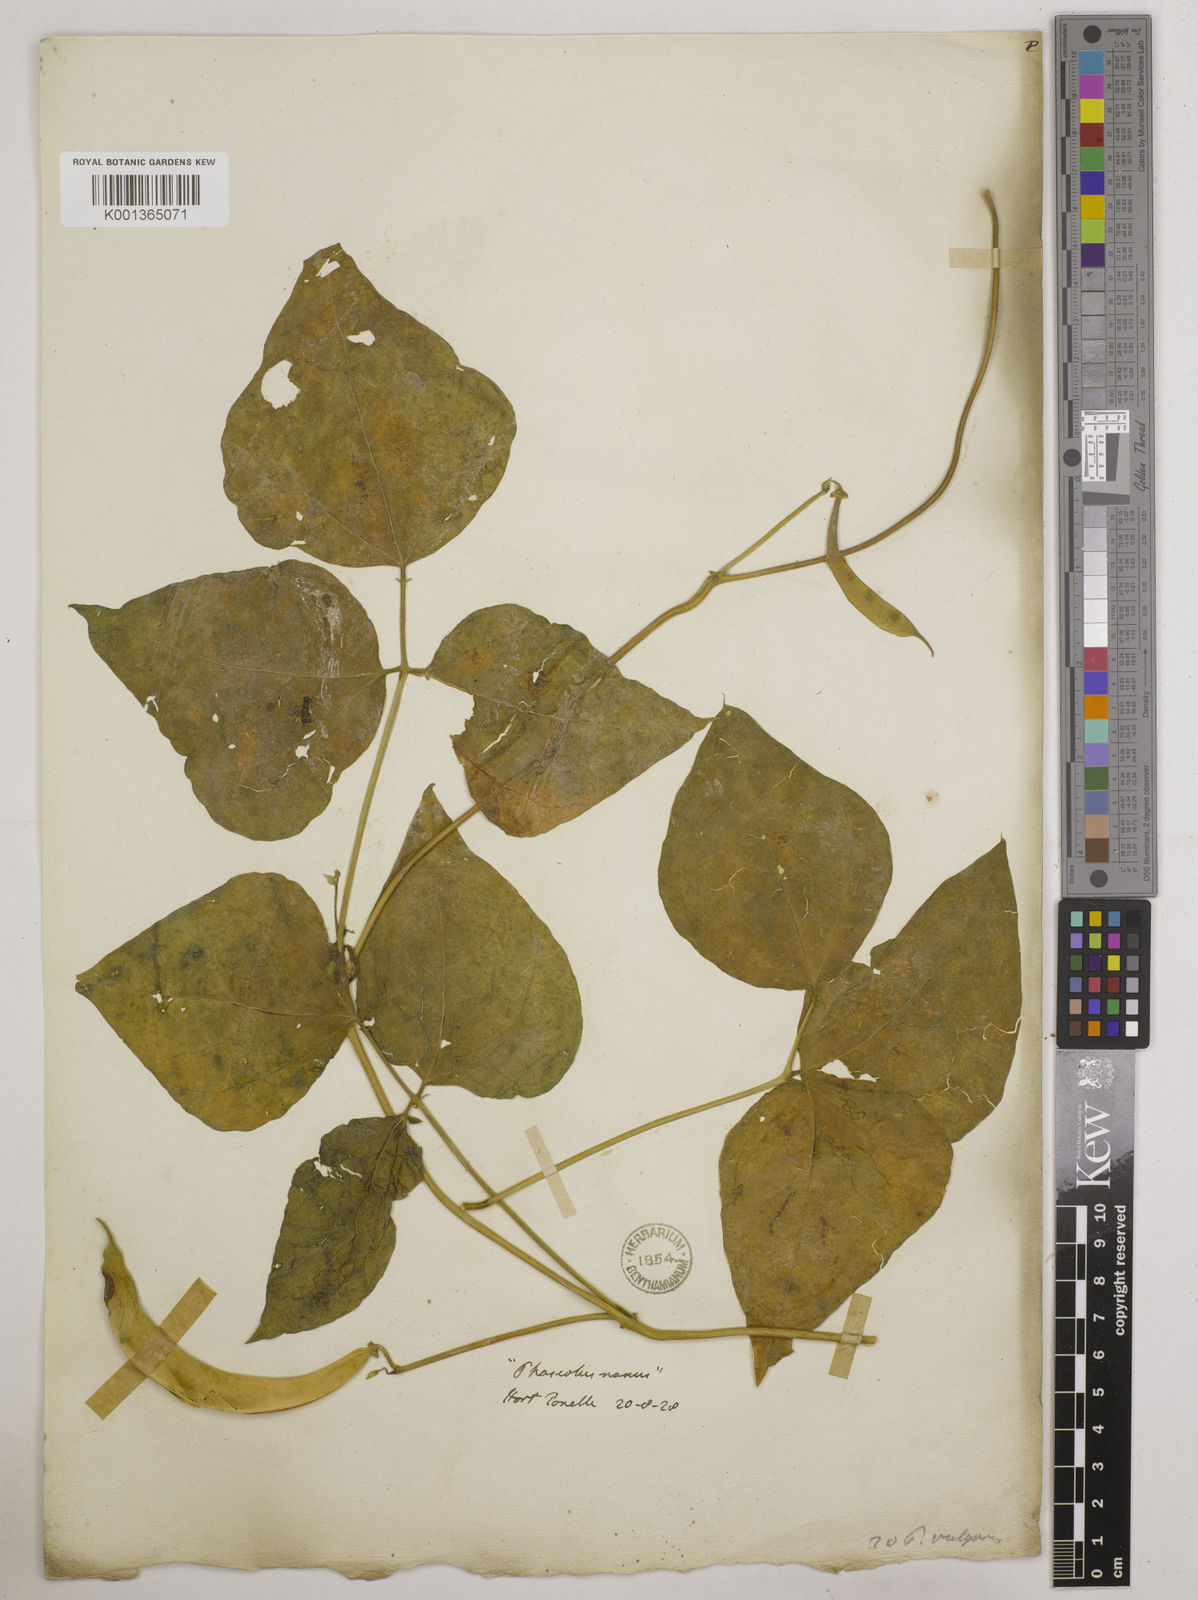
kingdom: Plantae
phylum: Tracheophyta
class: Magnoliopsida
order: Fabales
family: Fabaceae
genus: Phaseolus
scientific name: Phaseolus vulgaris
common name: Bean
